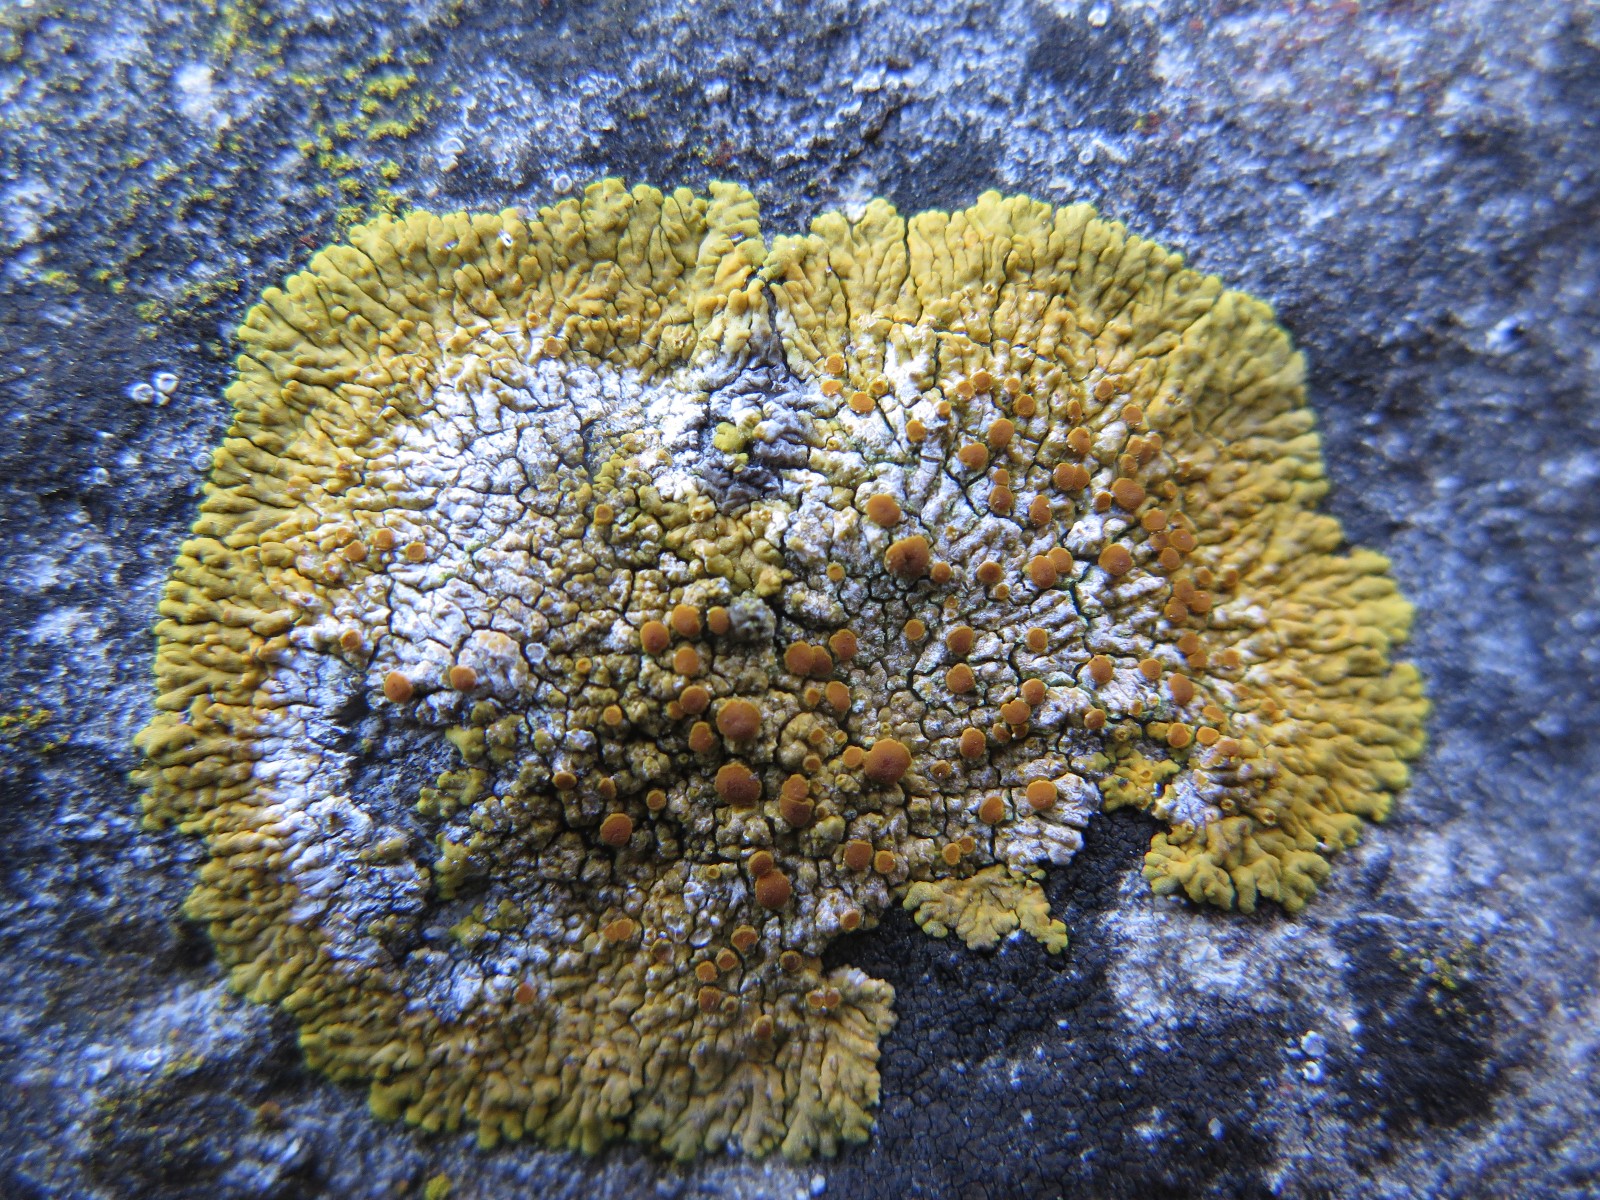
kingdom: Fungi
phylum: Ascomycota
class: Lecanoromycetes
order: Teloschistales
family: Teloschistaceae
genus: Variospora
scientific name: Variospora flavescens
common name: kalk-orangelav
